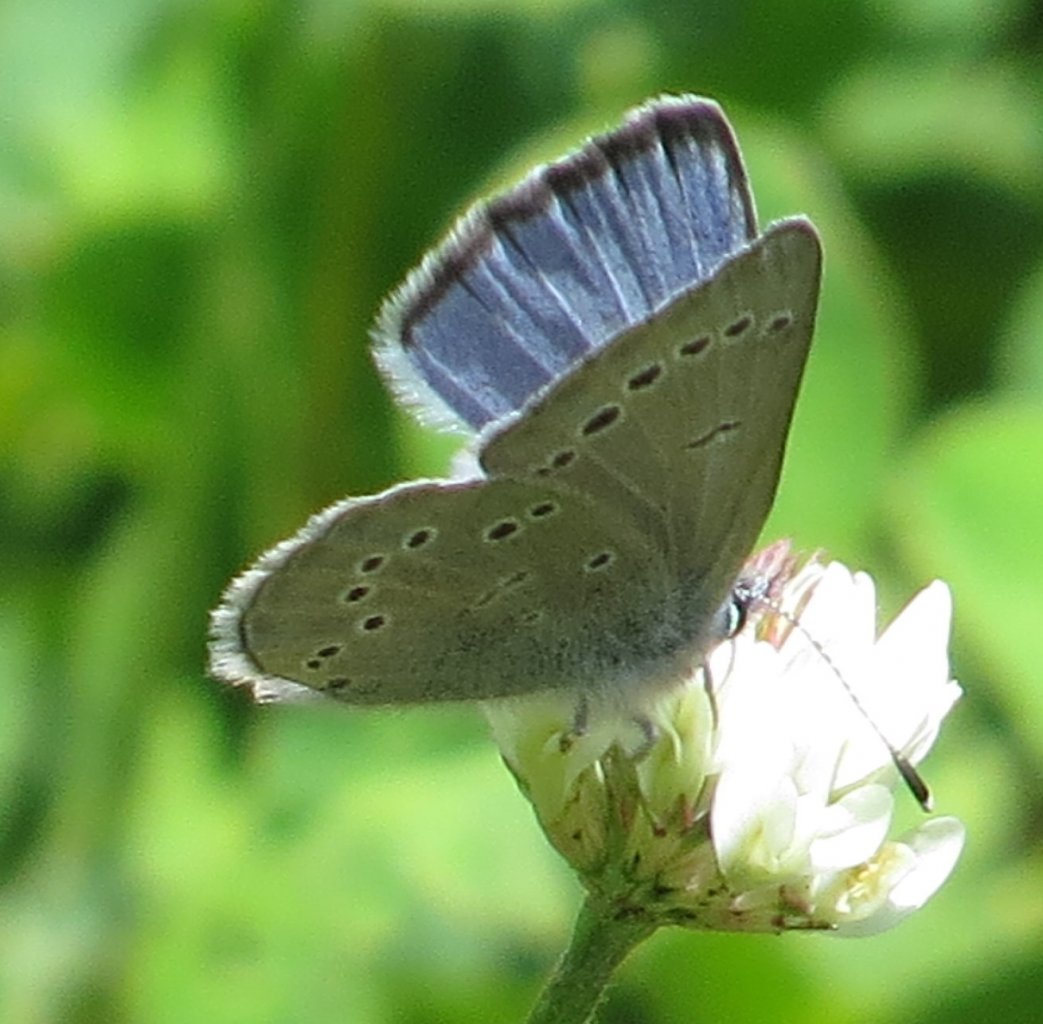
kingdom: Animalia
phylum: Arthropoda
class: Insecta
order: Lepidoptera
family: Lycaenidae
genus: Glaucopsyche
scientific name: Glaucopsyche lygdamus
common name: Silvery Blue
